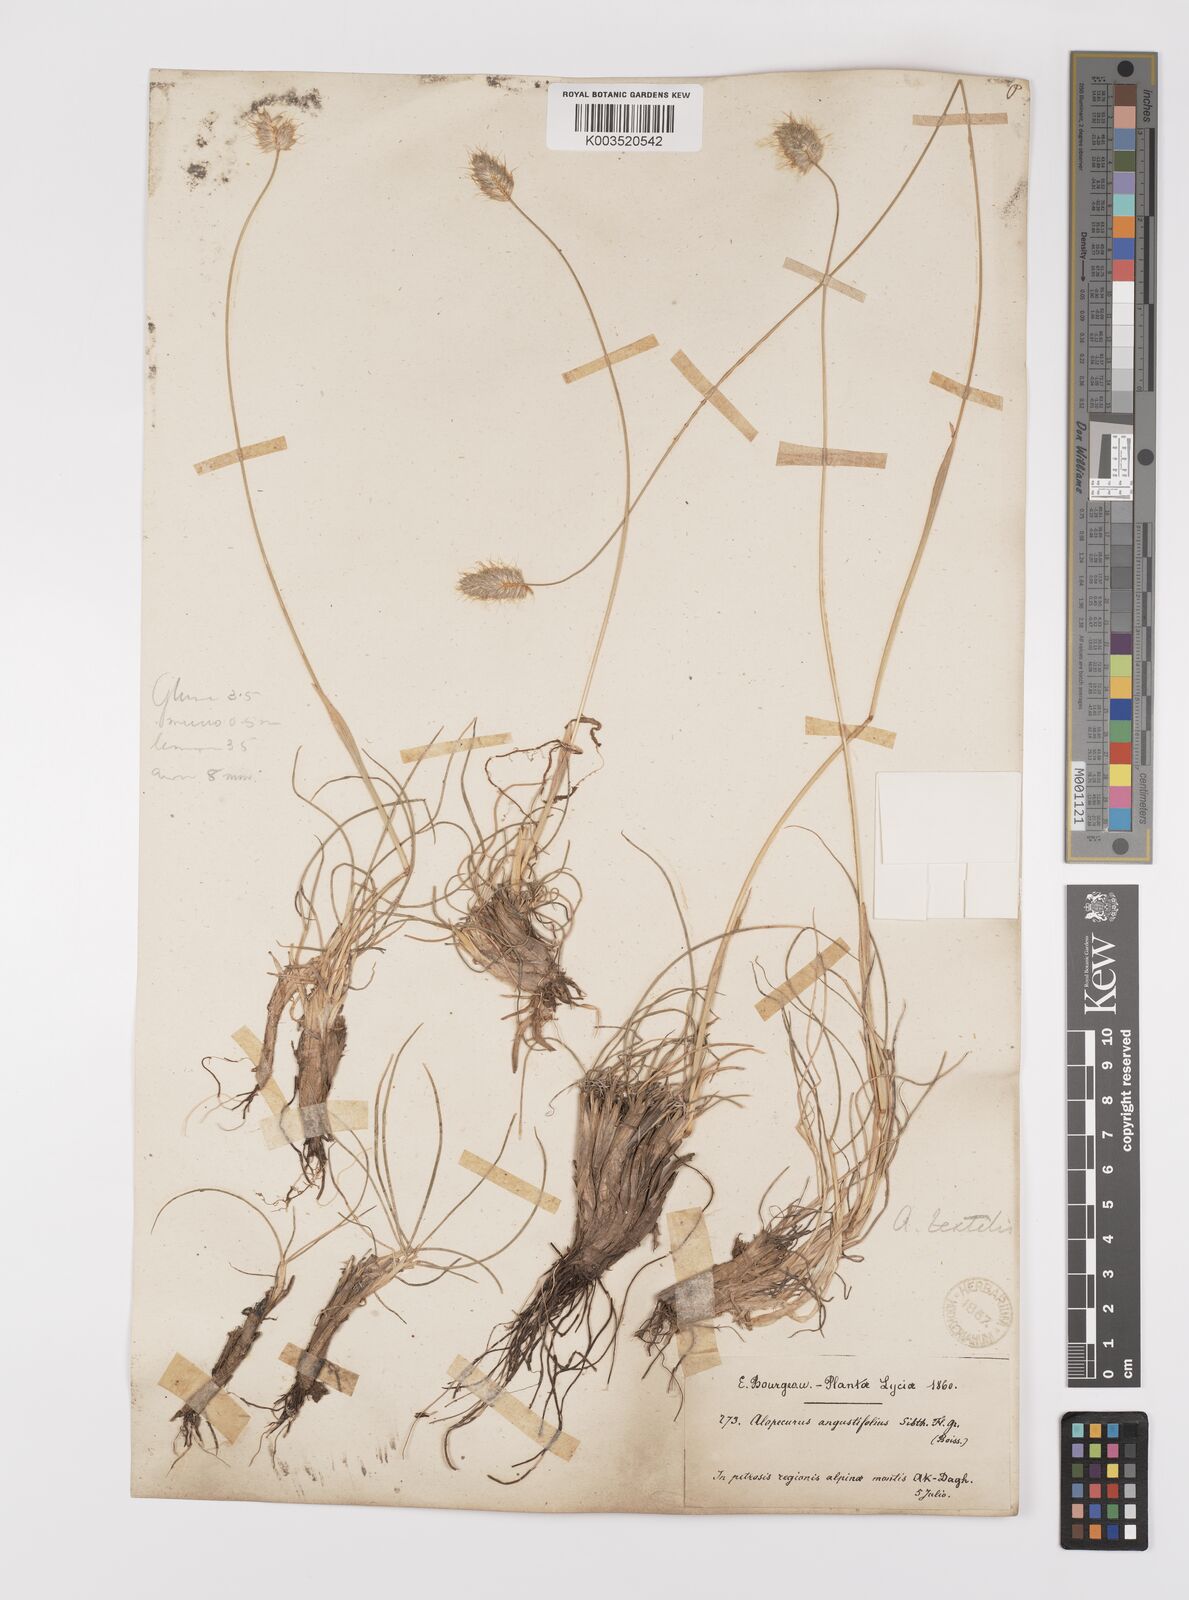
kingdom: Plantae
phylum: Tracheophyta
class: Liliopsida
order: Poales
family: Poaceae
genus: Alopecurus
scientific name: Alopecurus textilis
